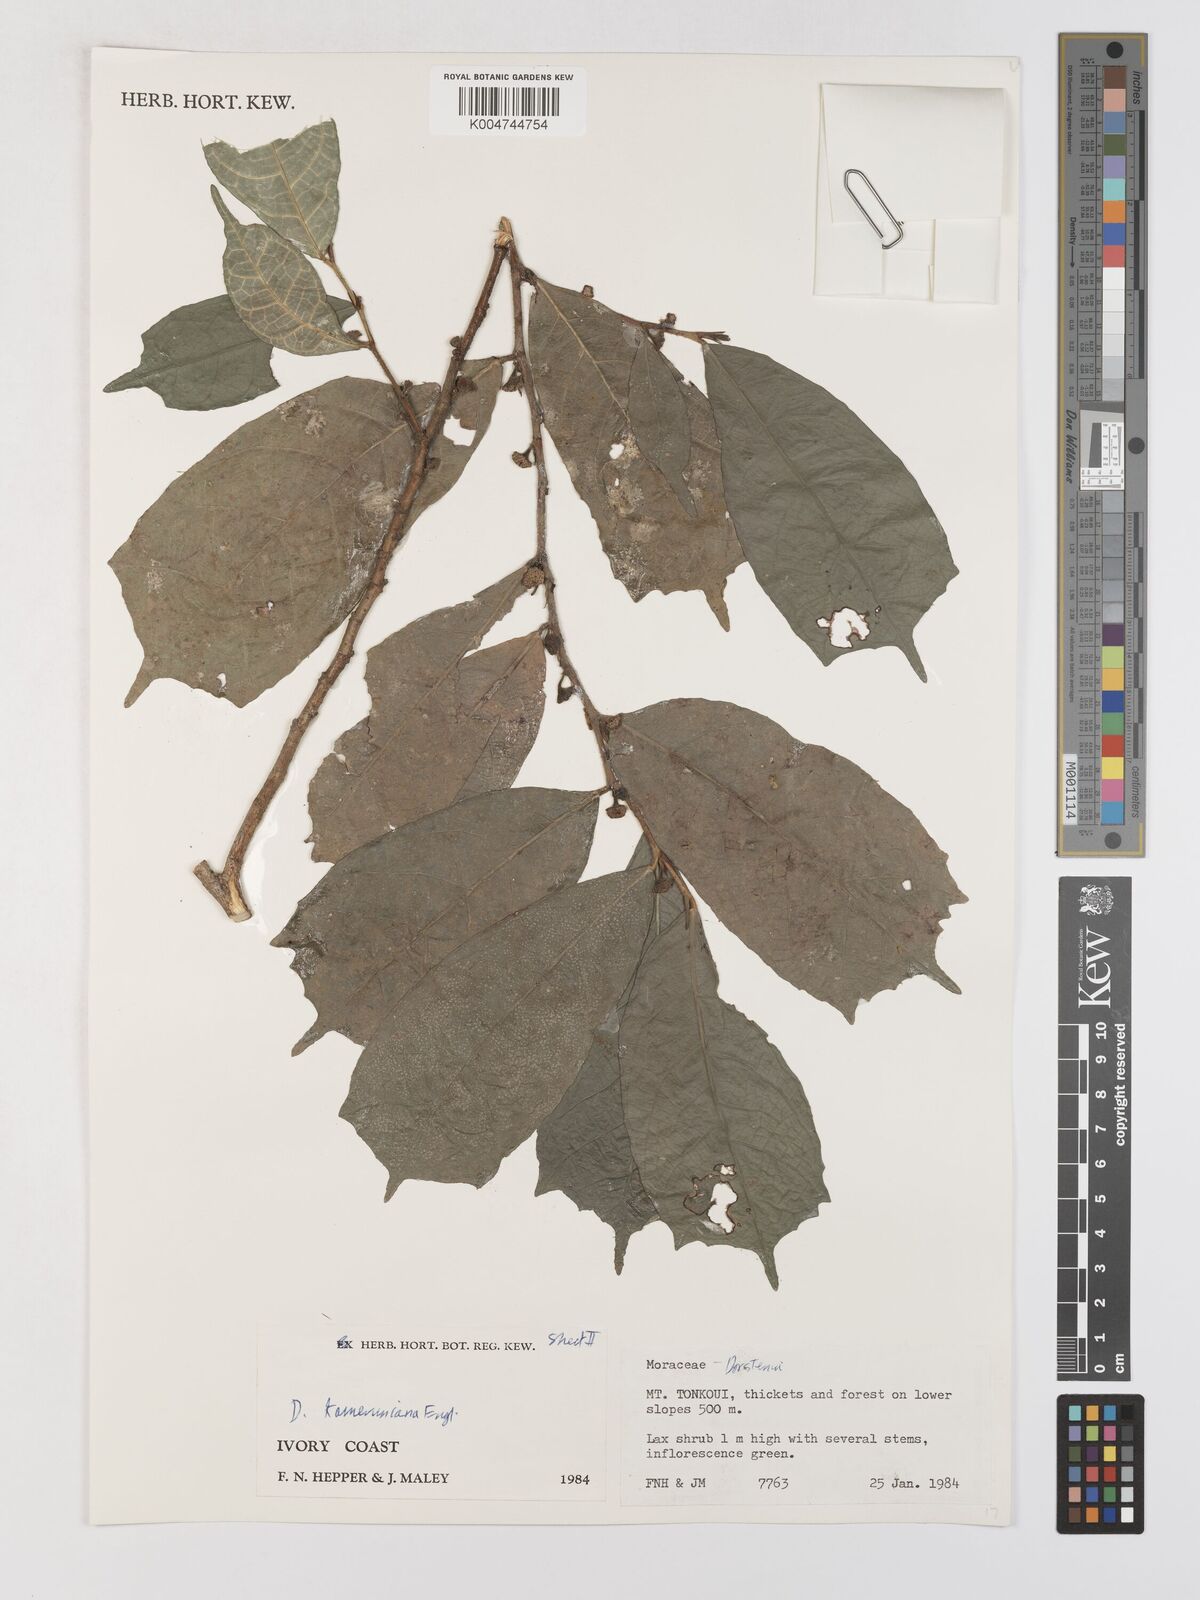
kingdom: Plantae
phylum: Tracheophyta
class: Magnoliopsida
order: Rosales
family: Moraceae
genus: Dorstenia
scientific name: Dorstenia kameruniana
